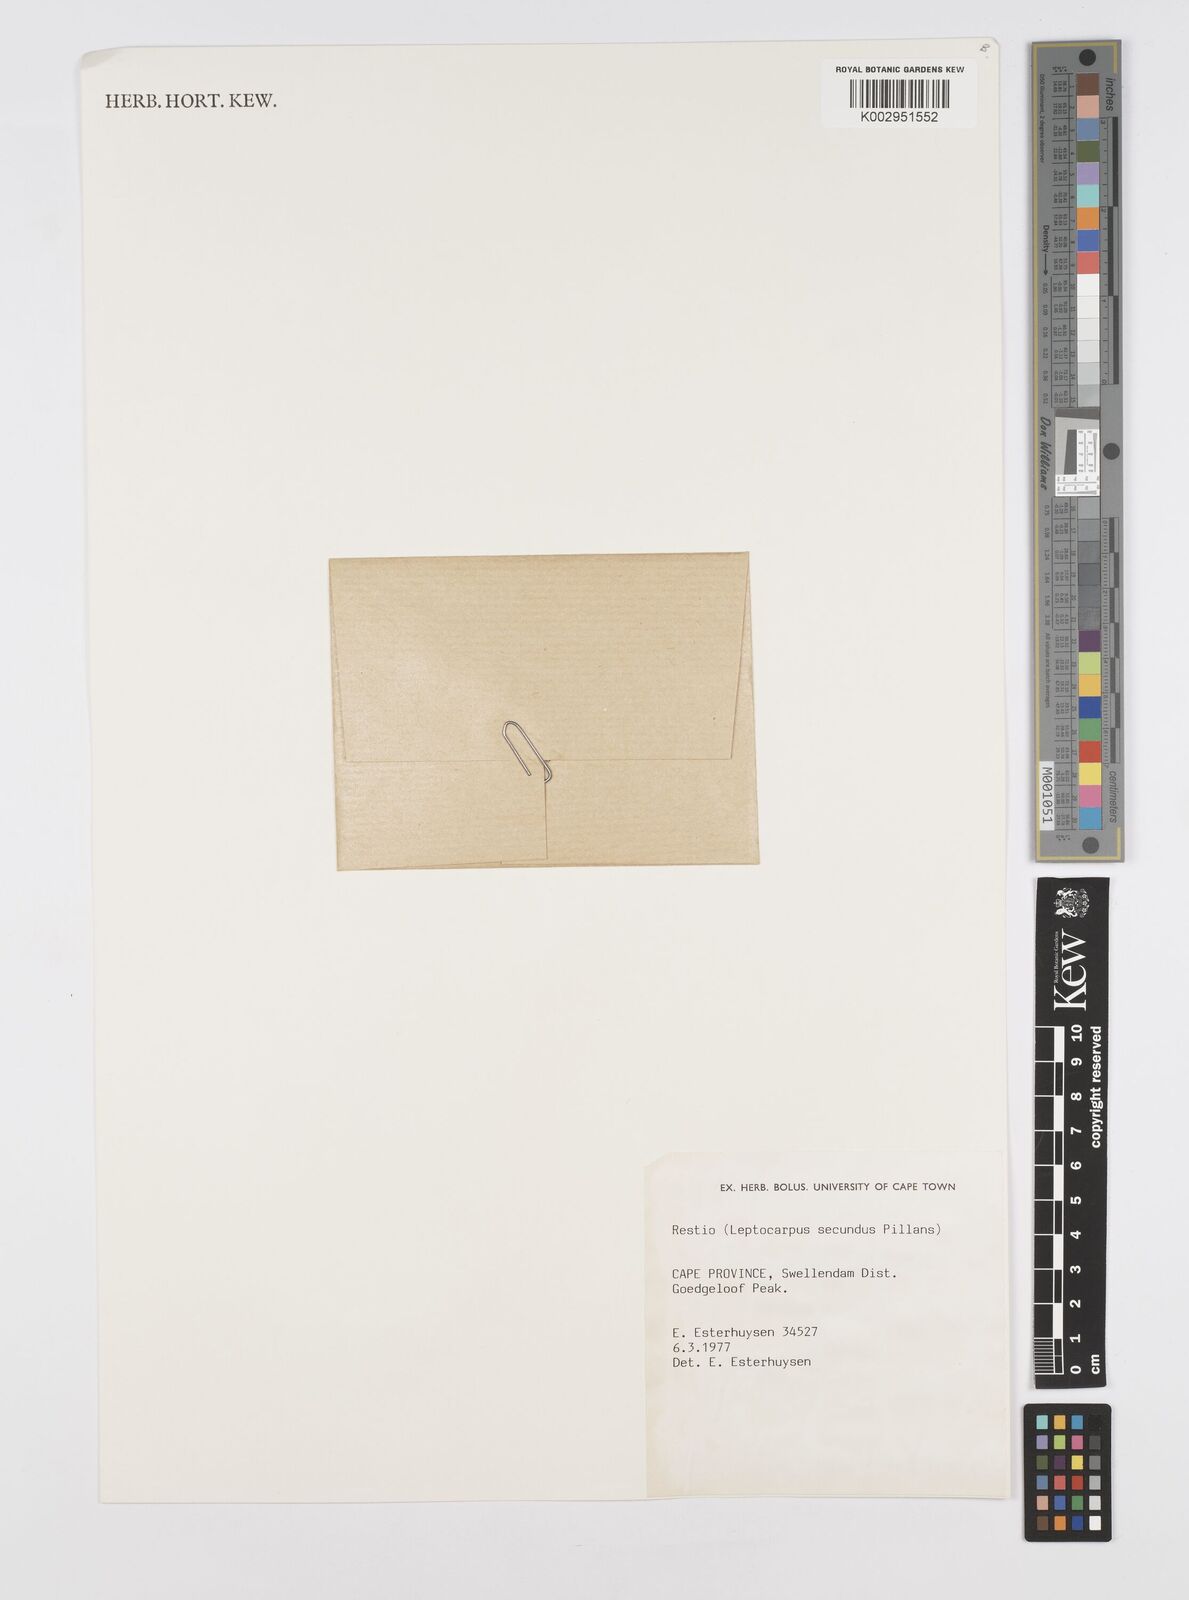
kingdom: Plantae
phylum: Tracheophyta
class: Liliopsida
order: Poales
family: Restionaceae
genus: Restio
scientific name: Restio secundus
